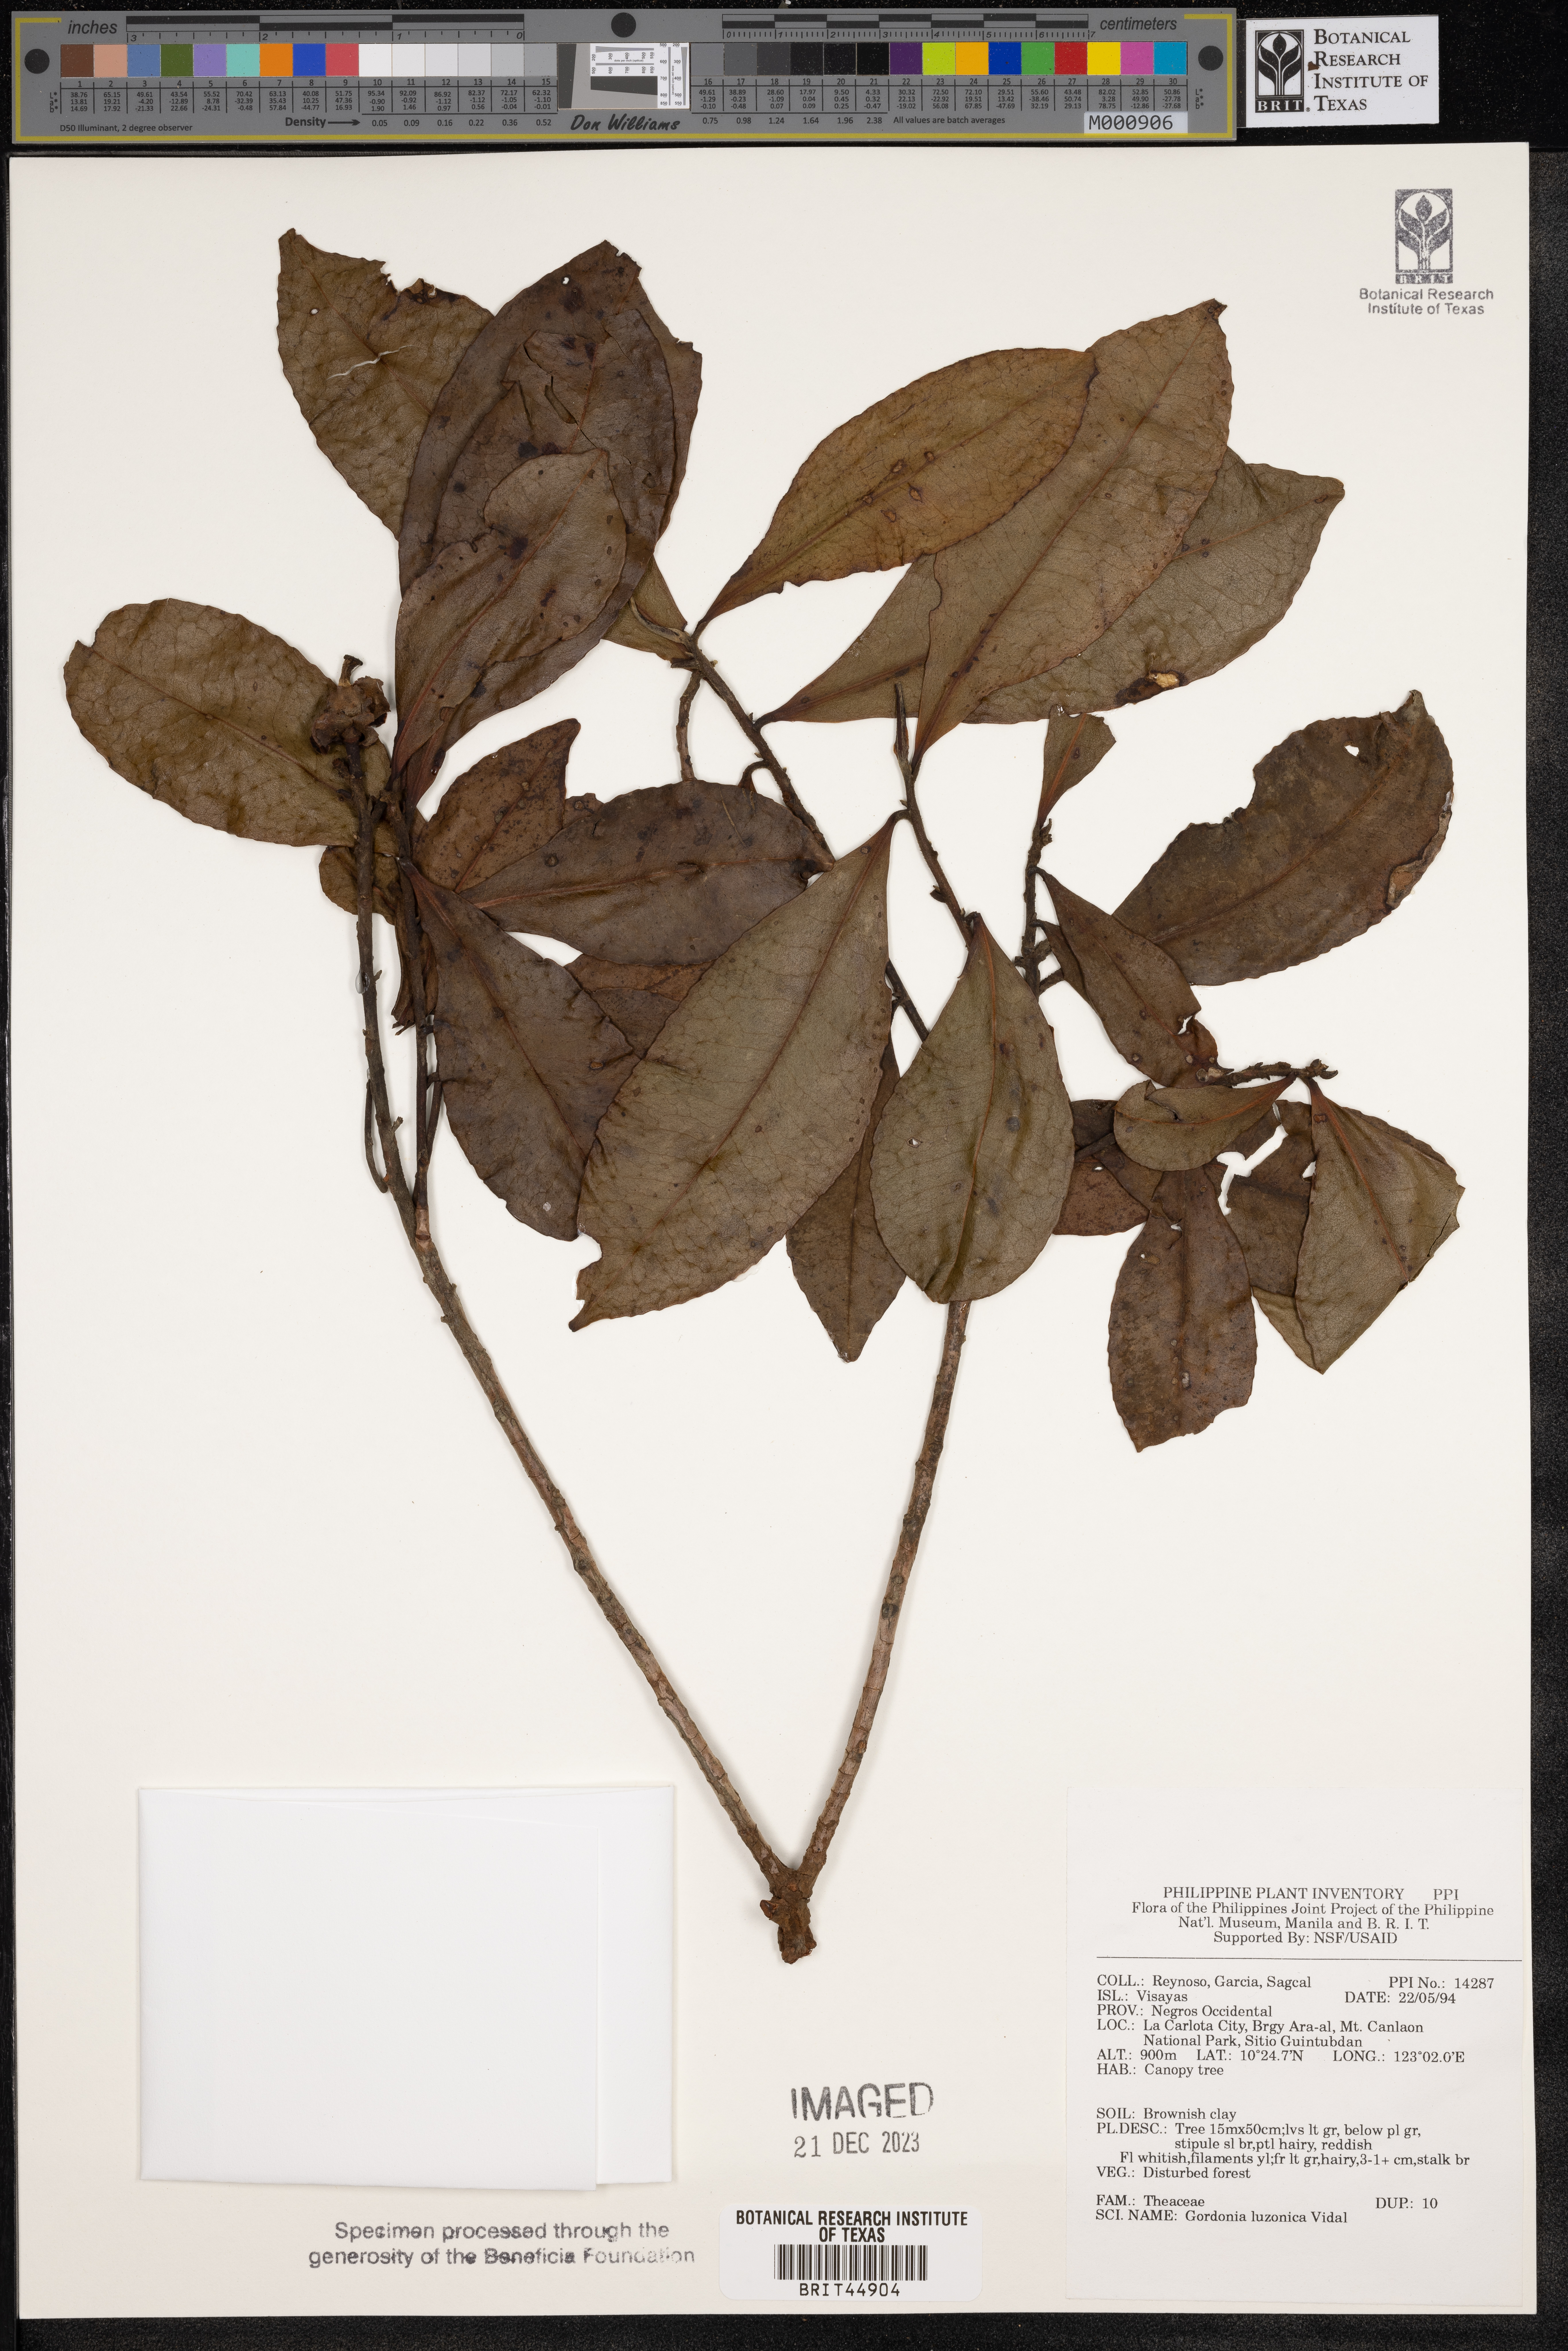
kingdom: Plantae
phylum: Tracheophyta
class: Magnoliopsida
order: Ericales
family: Theaceae
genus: Polyspora
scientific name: Polyspora luzonica
